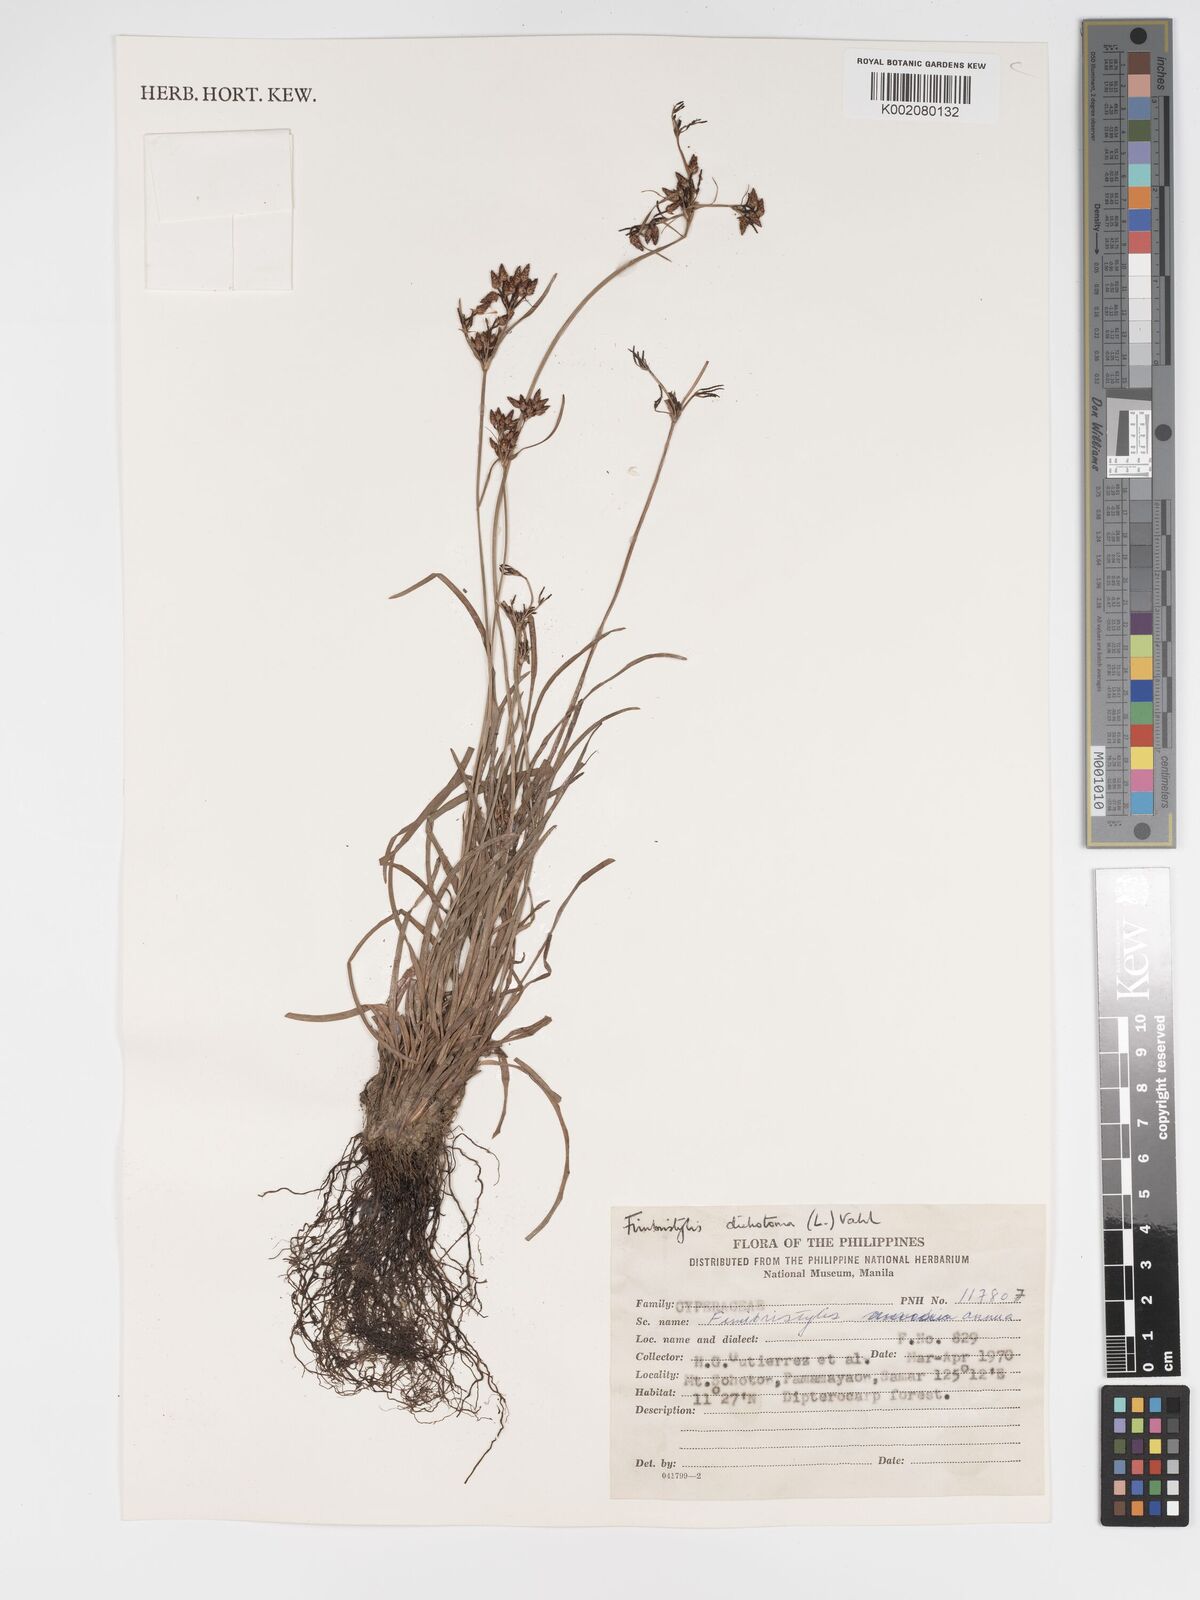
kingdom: Plantae
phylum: Tracheophyta
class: Liliopsida
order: Poales
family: Cyperaceae
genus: Fimbristylis
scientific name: Fimbristylis dichotoma
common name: Forked fimbry
